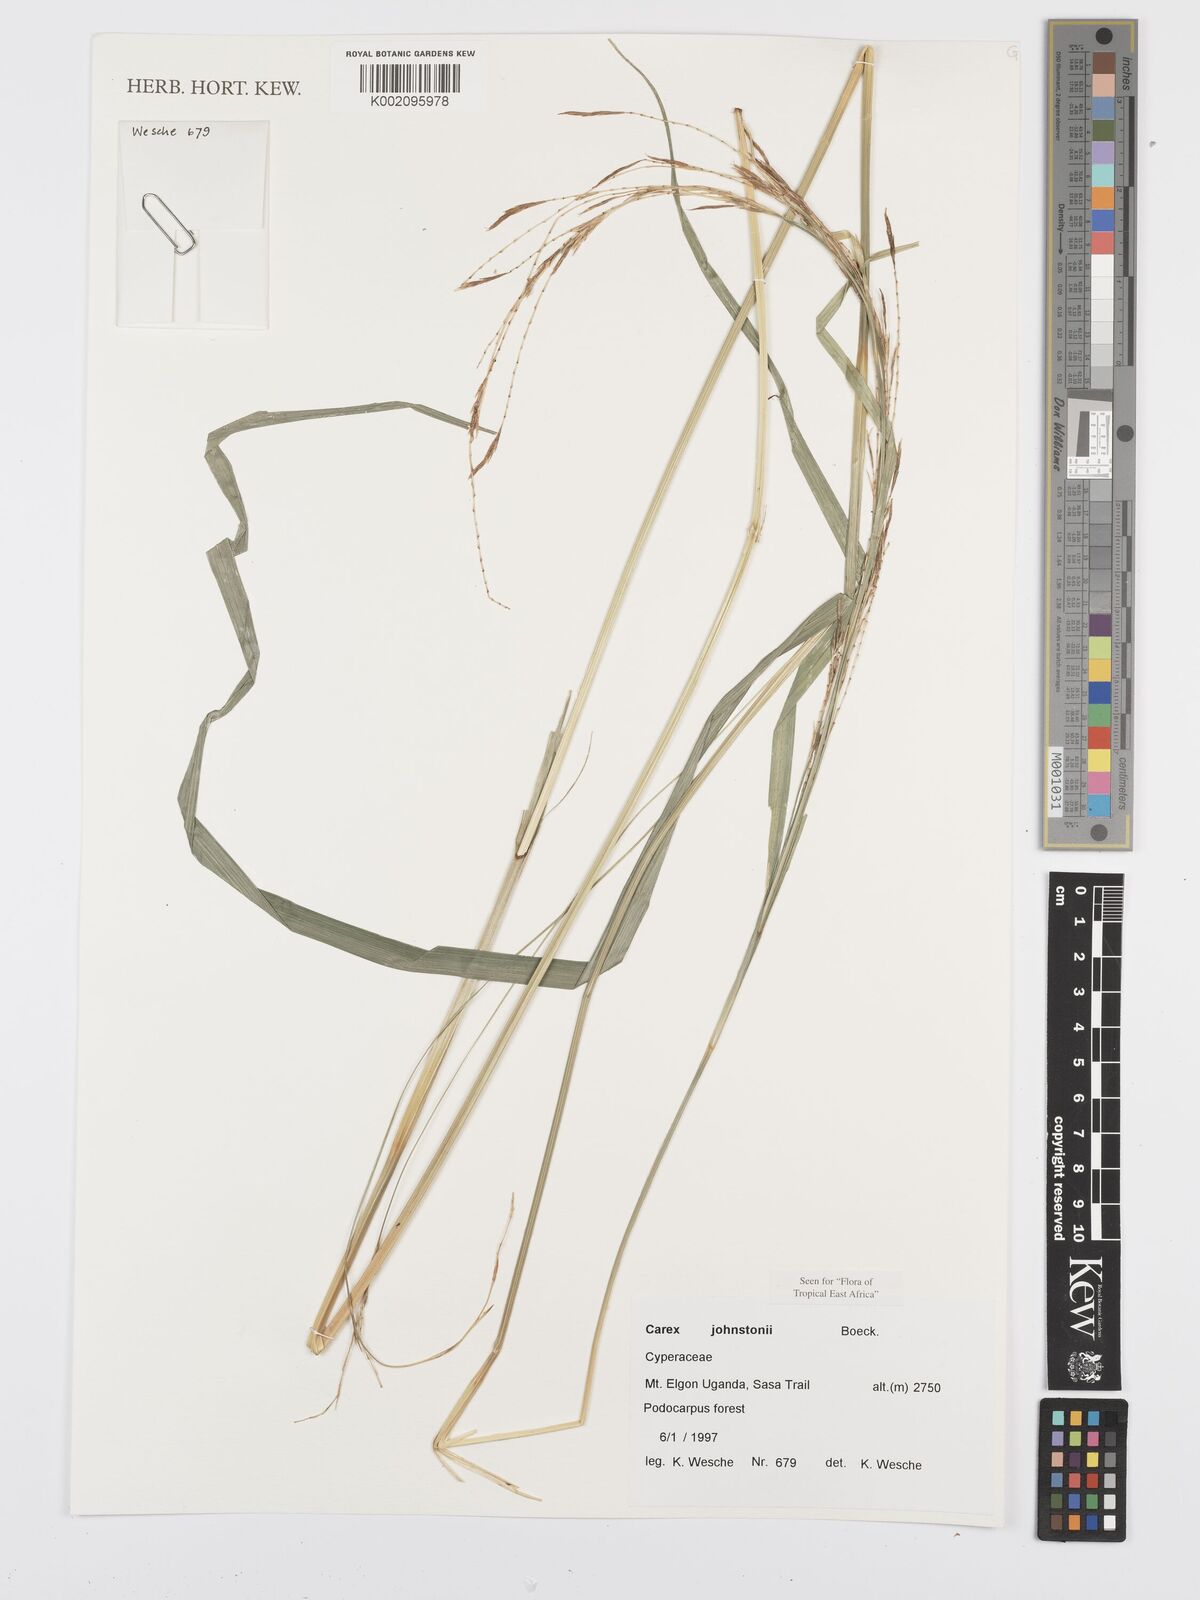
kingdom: Plantae
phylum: Tracheophyta
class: Liliopsida
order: Poales
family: Cyperaceae
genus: Carex
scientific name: Carex johnstonii
